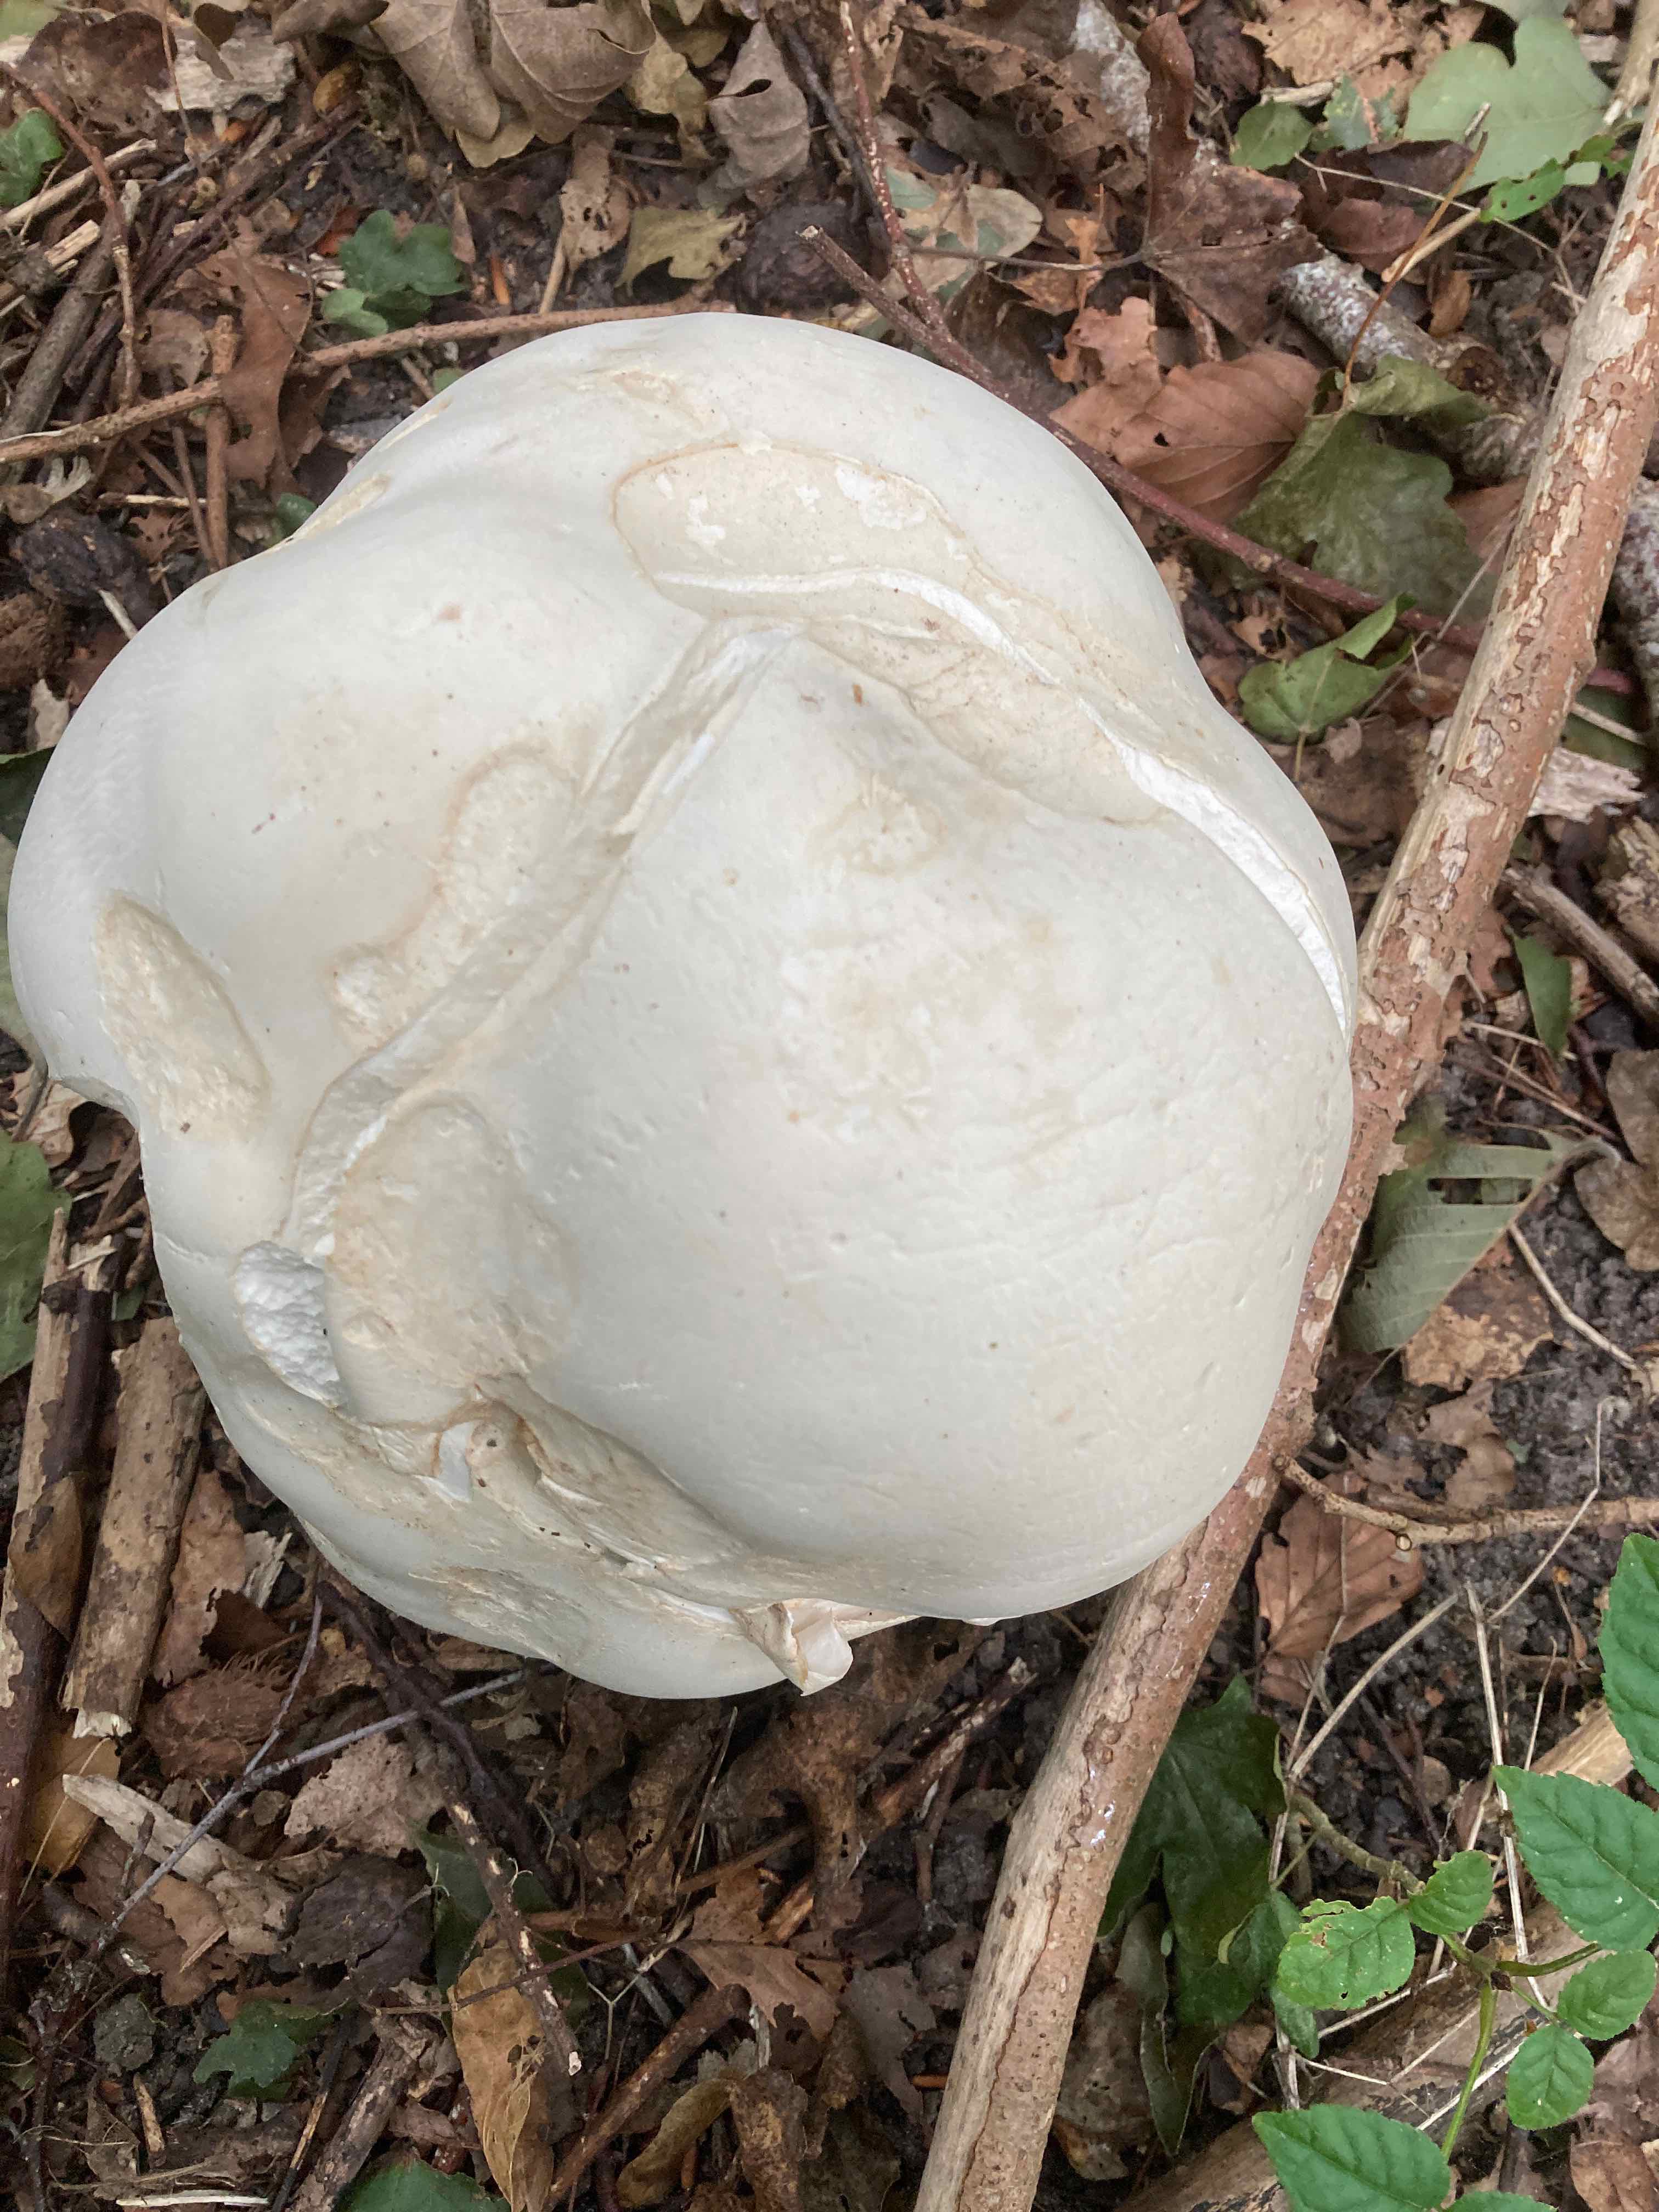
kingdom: Fungi
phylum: Basidiomycota
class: Agaricomycetes
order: Agaricales
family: Lycoperdaceae
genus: Calvatia
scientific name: Calvatia gigantea
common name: kæmpestøvbold
